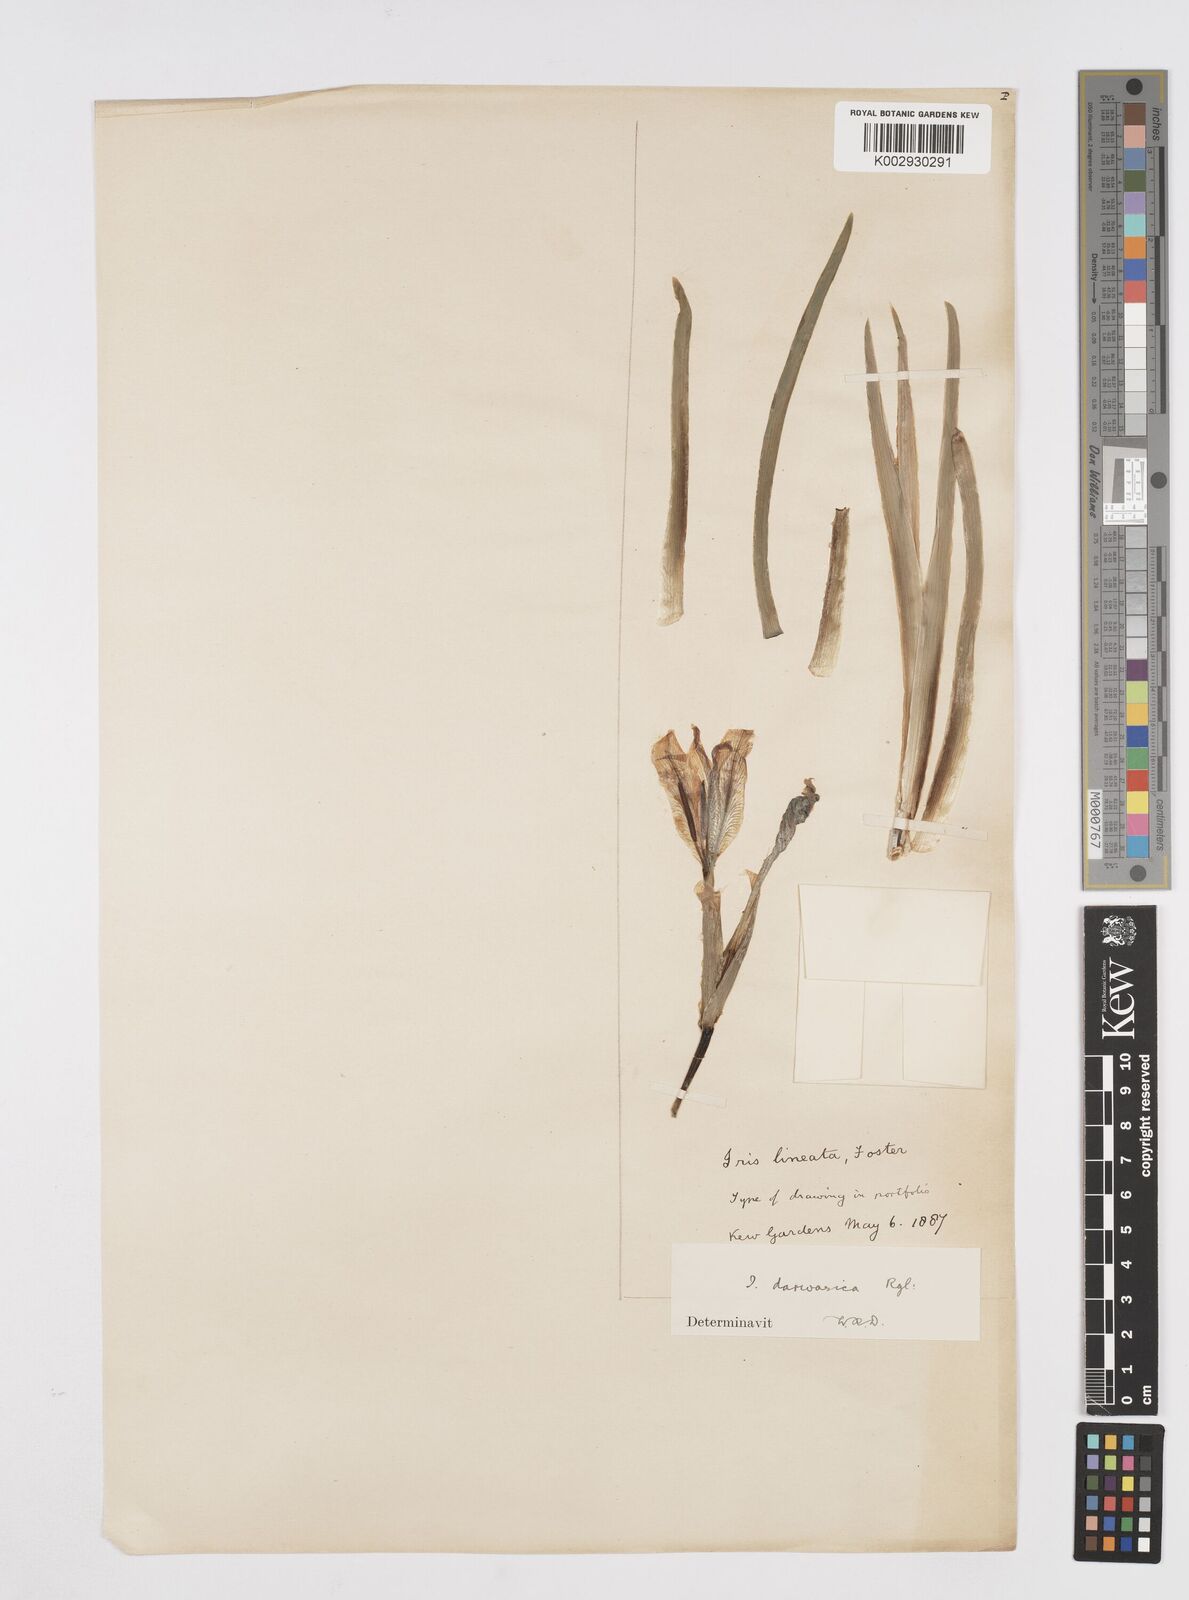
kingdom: Plantae
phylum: Tracheophyta
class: Liliopsida
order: Asparagales
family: Iridaceae
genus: Iris
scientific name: Iris lineata
